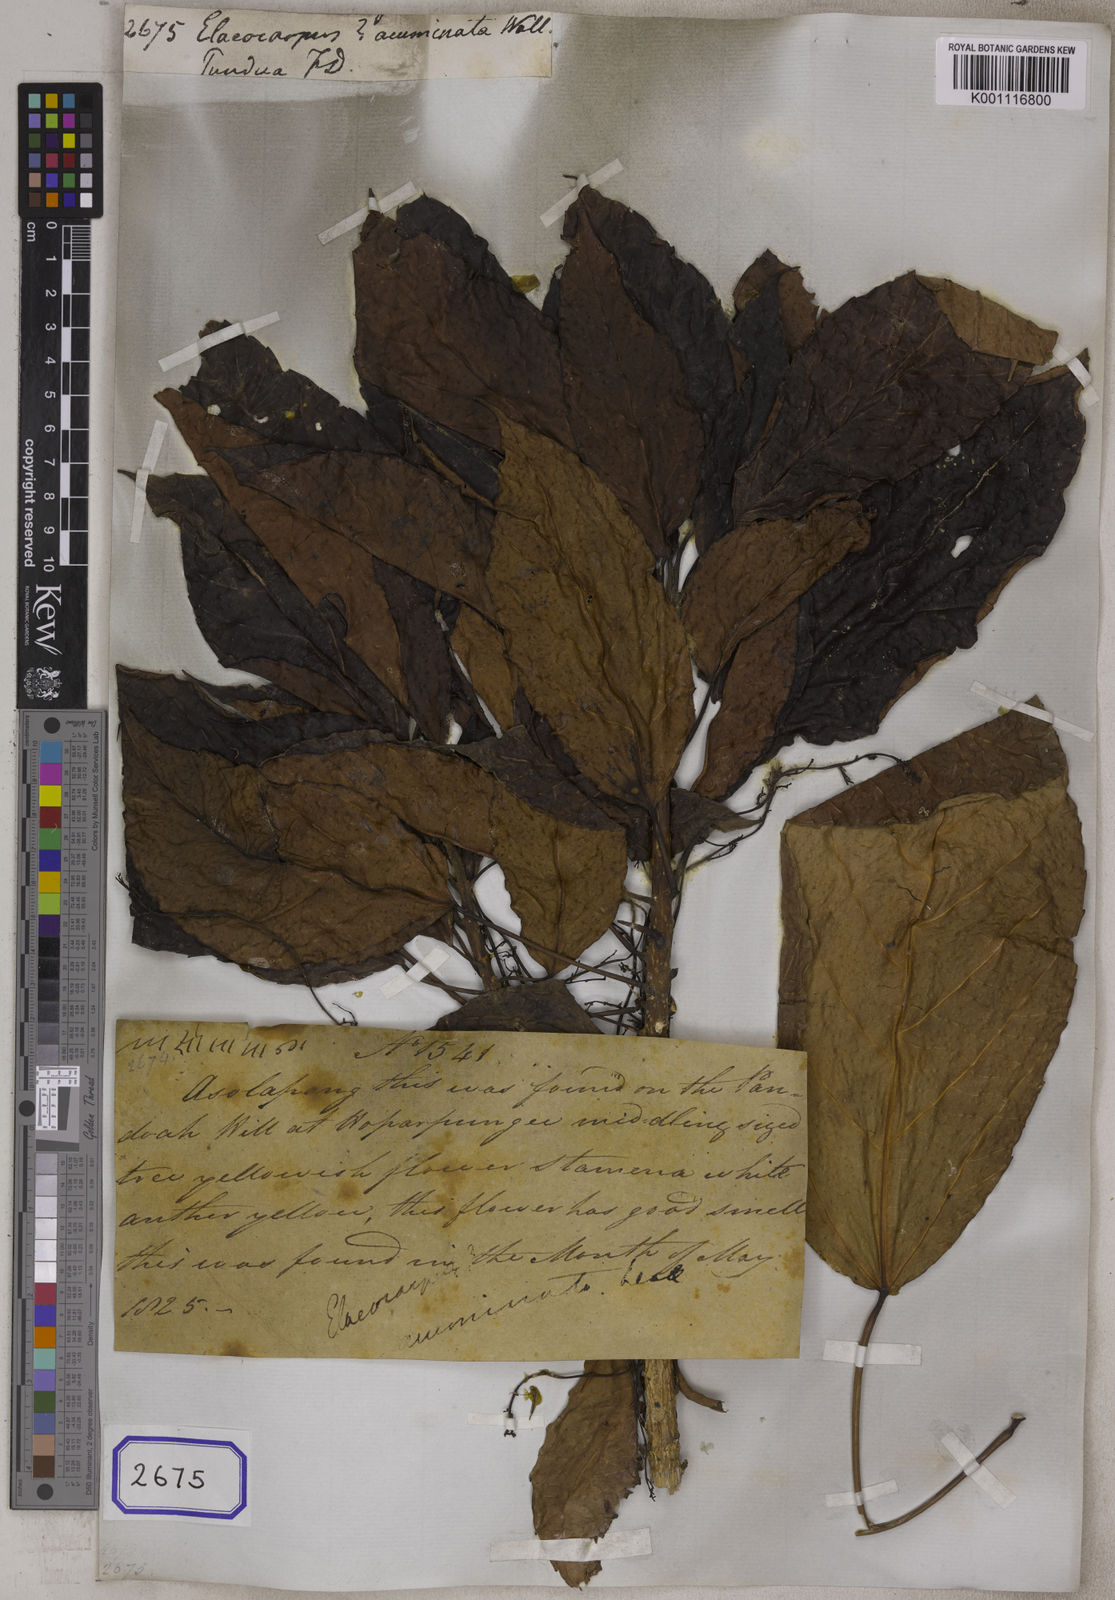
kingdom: Plantae
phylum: Tracheophyta
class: Magnoliopsida
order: Oxalidales
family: Elaeocarpaceae
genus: Elaeocarpus
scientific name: Elaeocarpus
